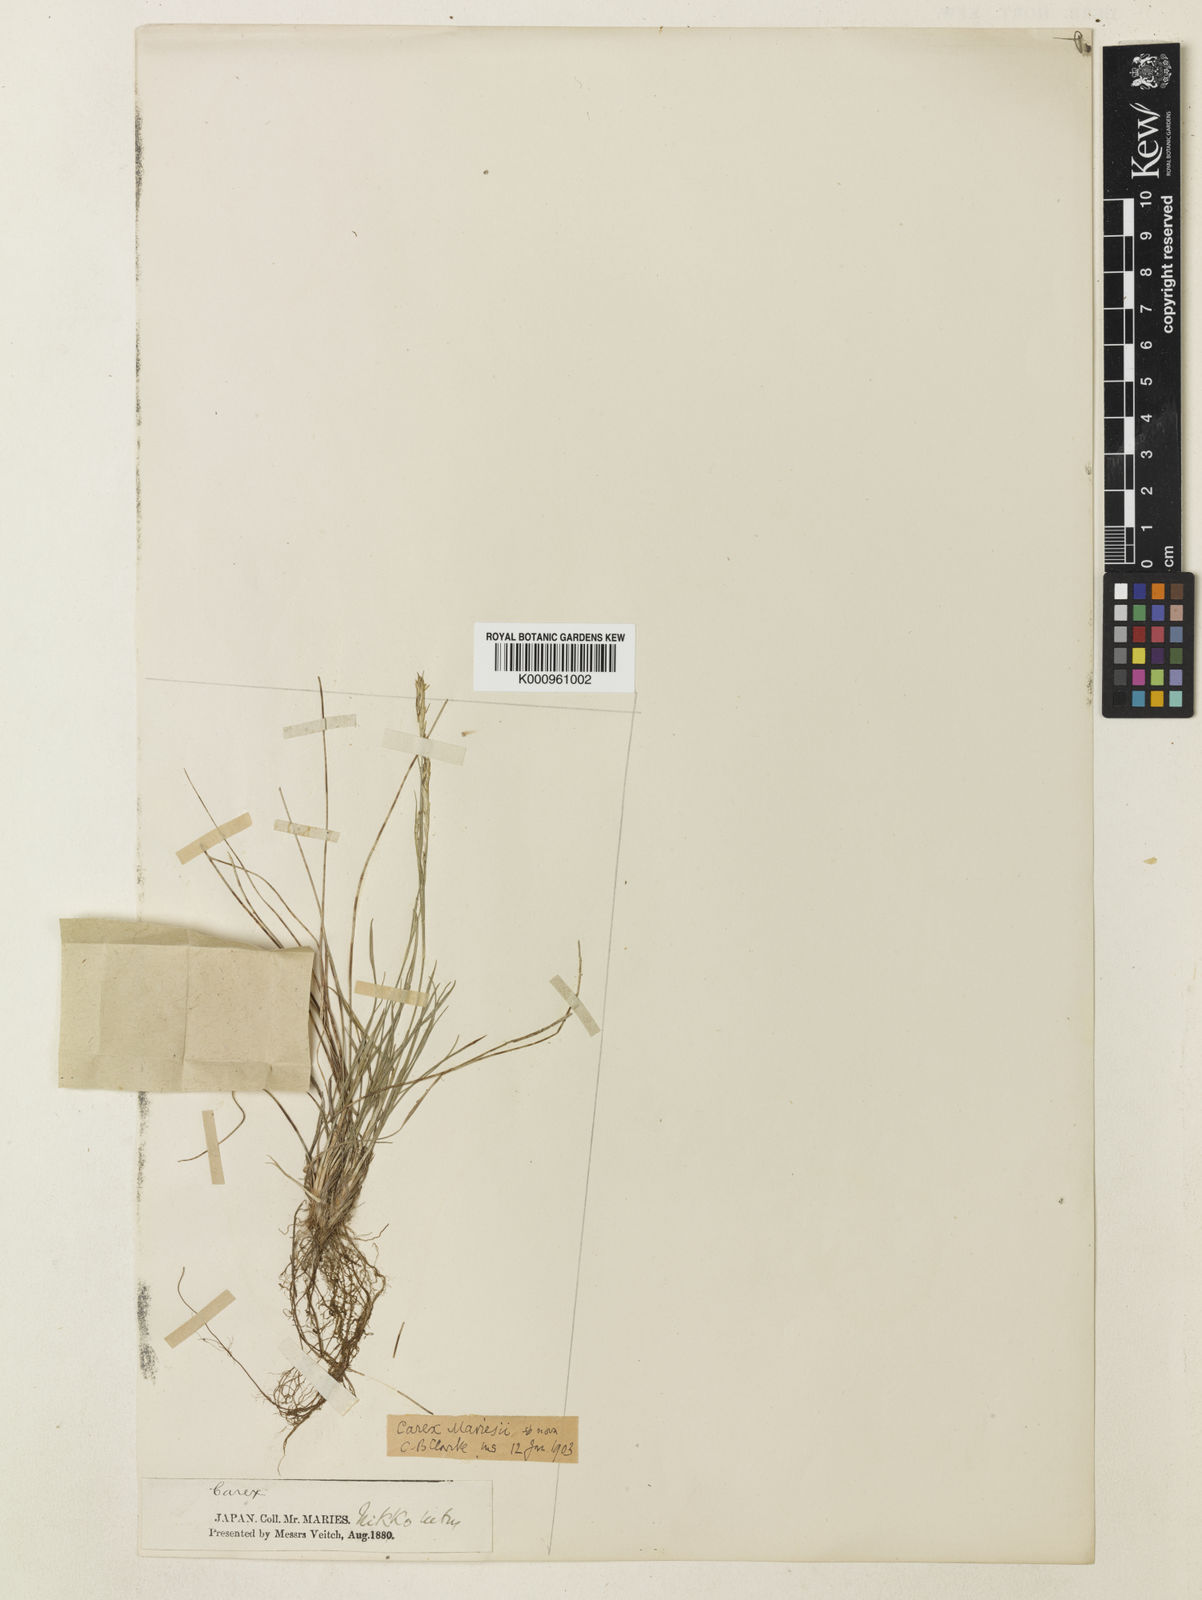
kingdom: Plantae
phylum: Tracheophyta
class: Liliopsida
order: Poales
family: Cyperaceae
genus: Carex
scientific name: Carex pisiformis
